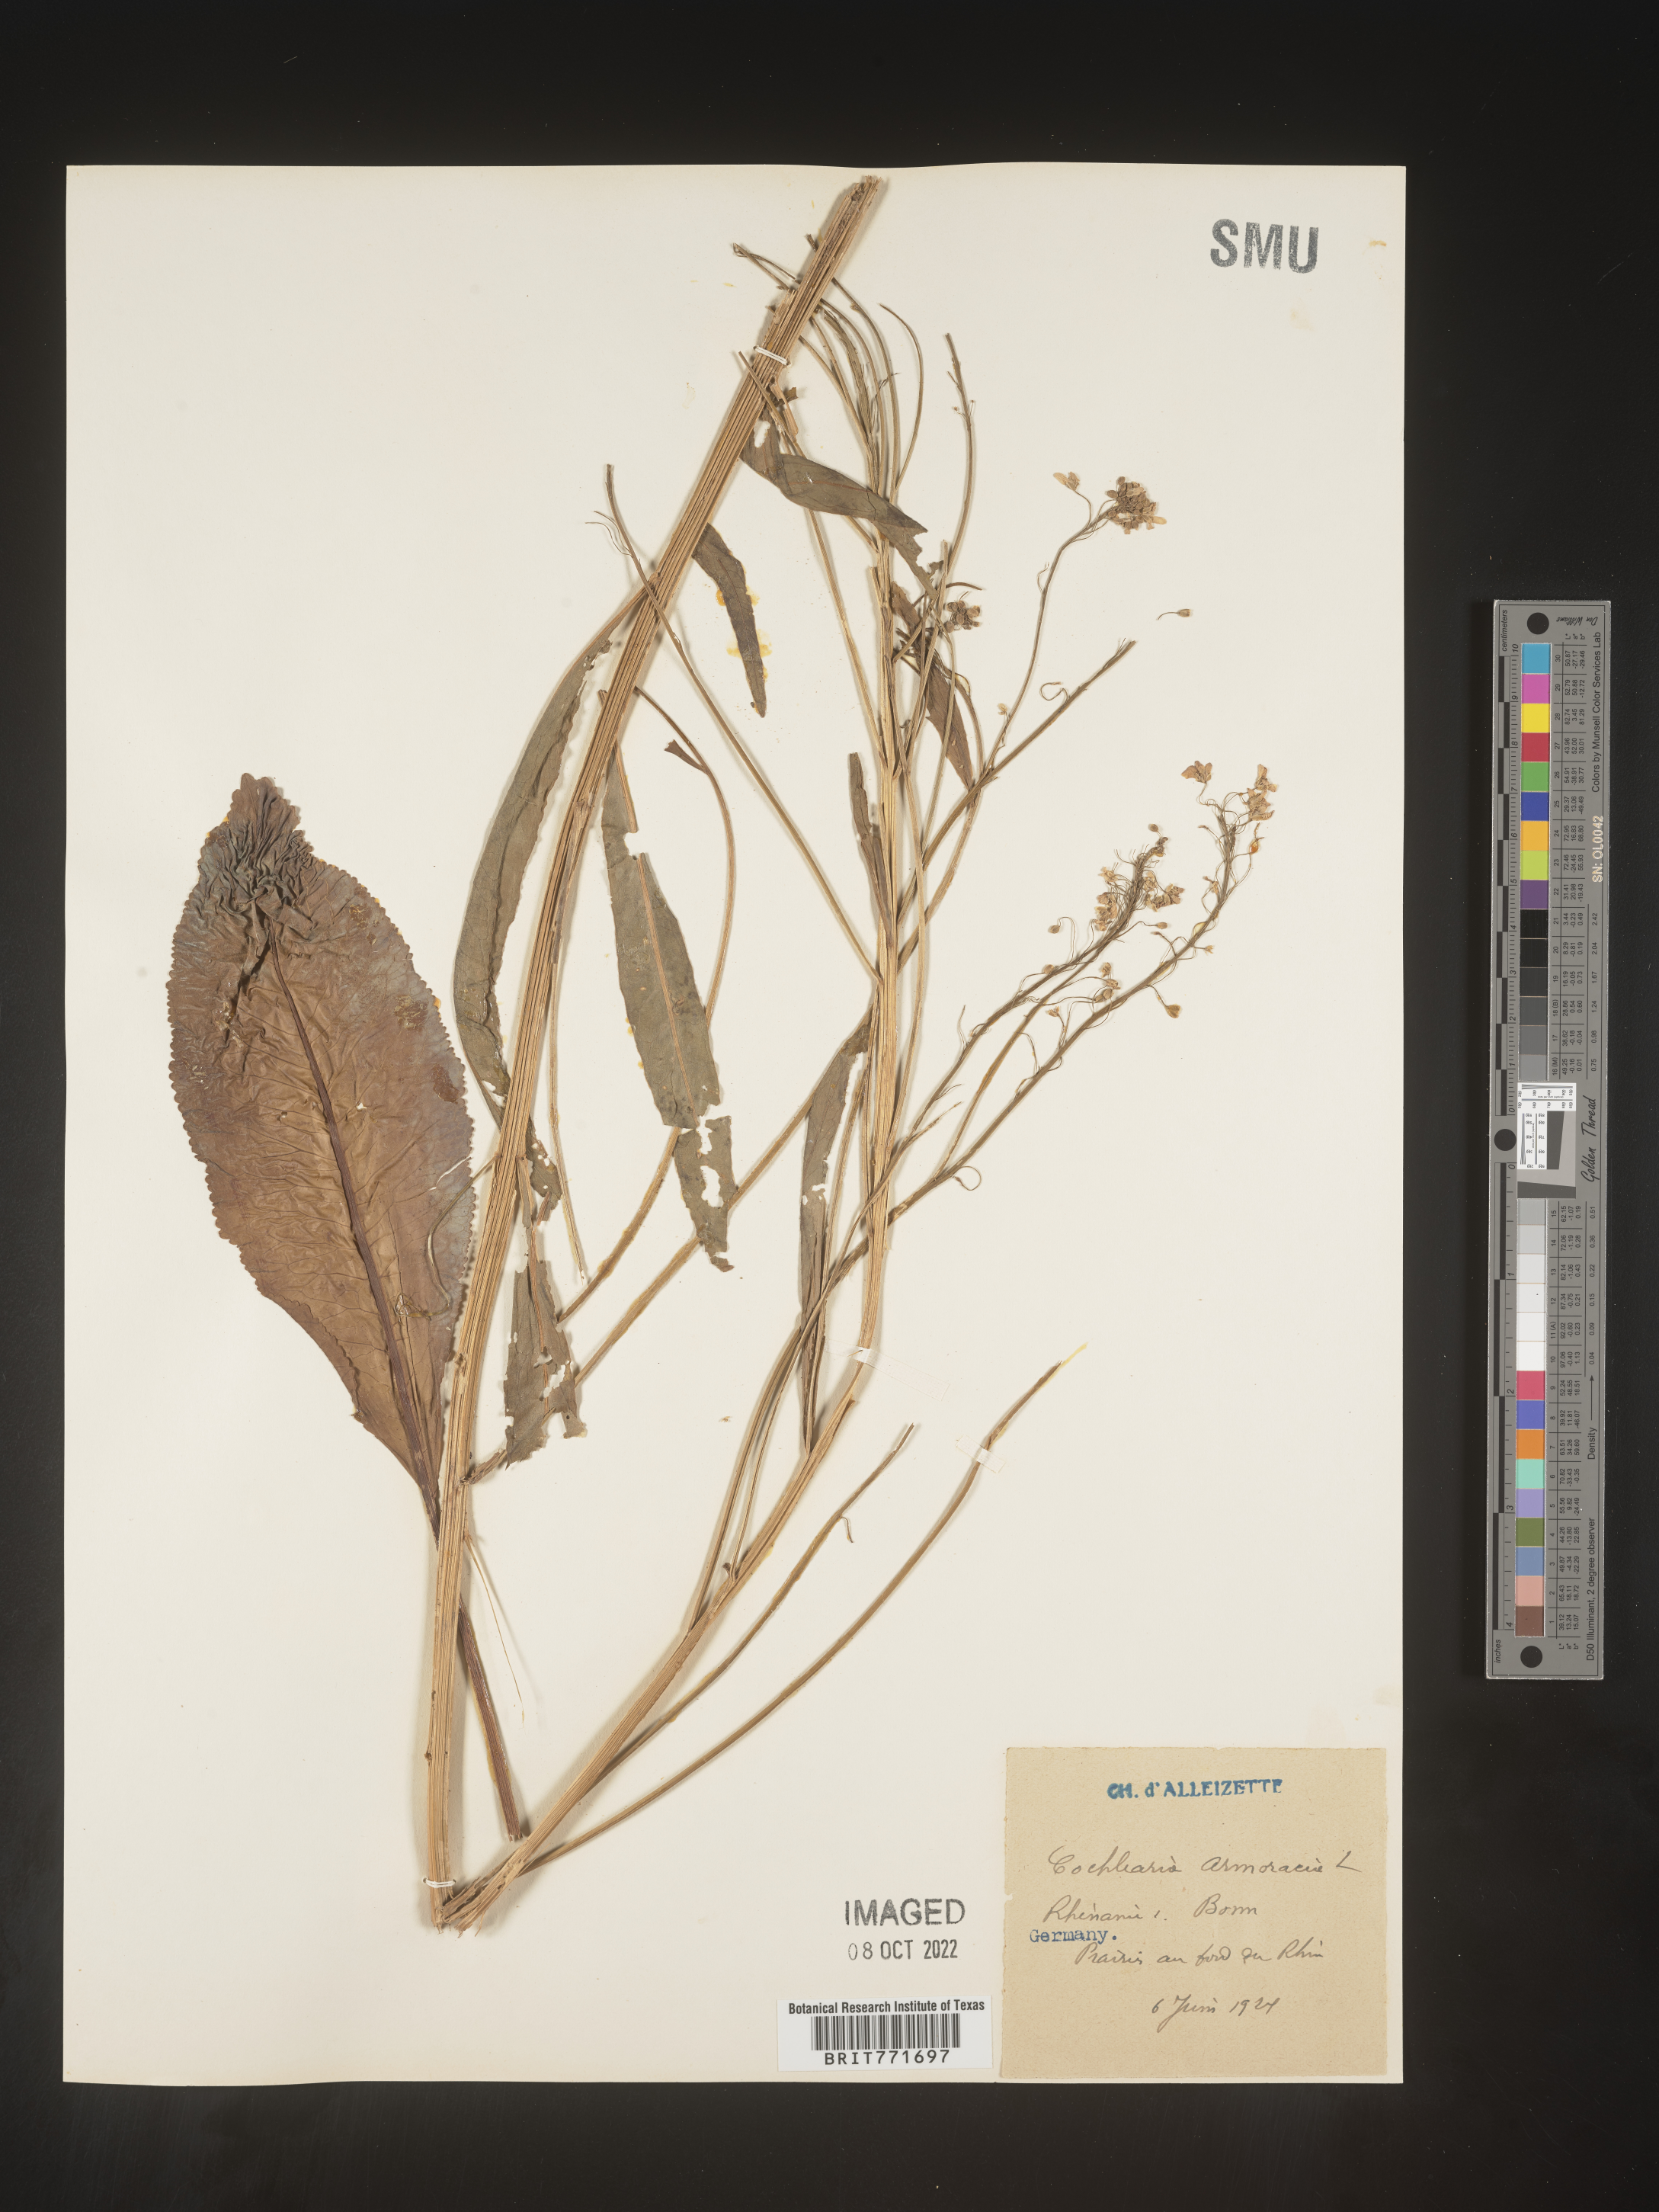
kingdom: Plantae
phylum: Tracheophyta
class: Magnoliopsida
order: Brassicales
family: Brassicaceae
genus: Armoracia
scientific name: Armoracia
